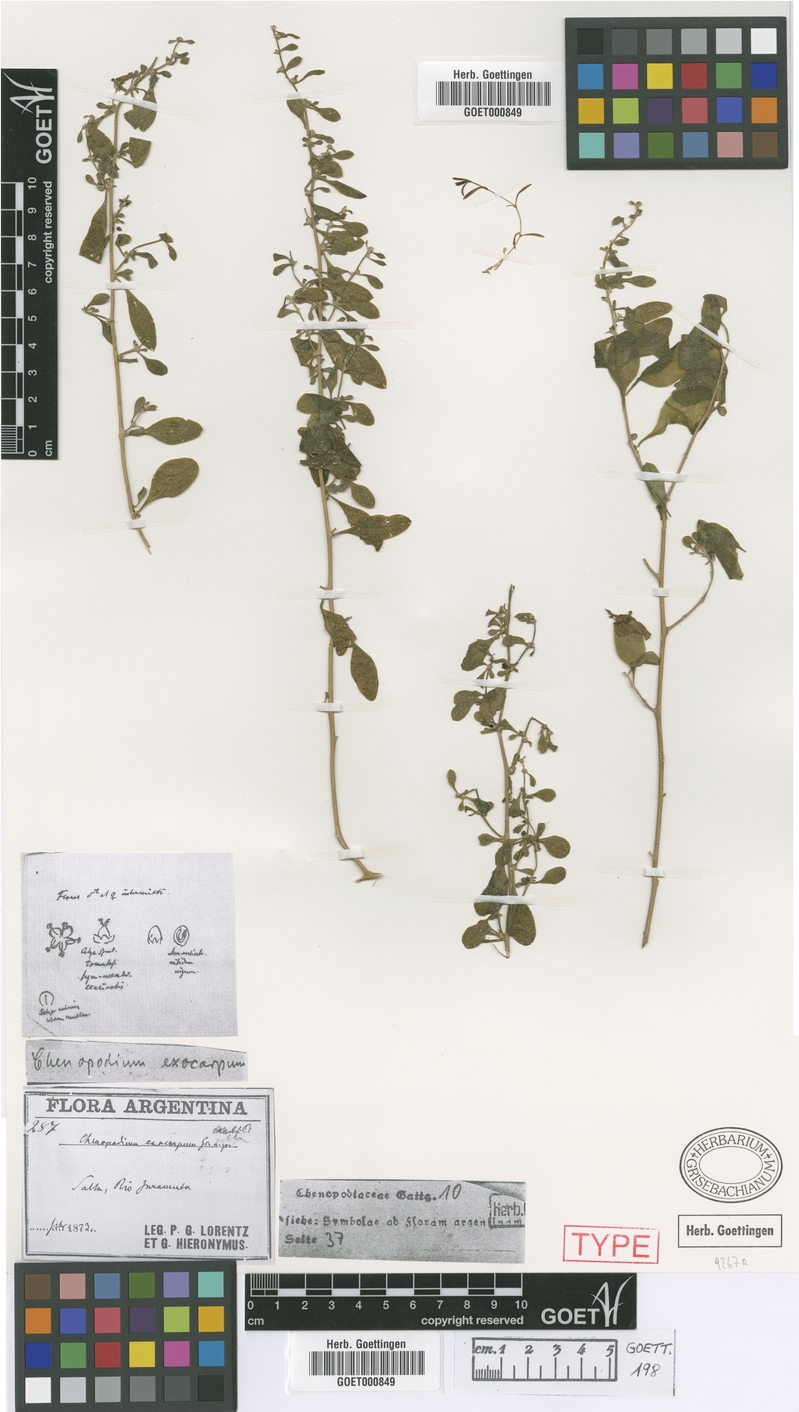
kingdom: Plantae
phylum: Tracheophyta
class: Magnoliopsida
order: Caryophyllales
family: Amaranthaceae
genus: Holmbergia
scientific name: Holmbergia tweedii
